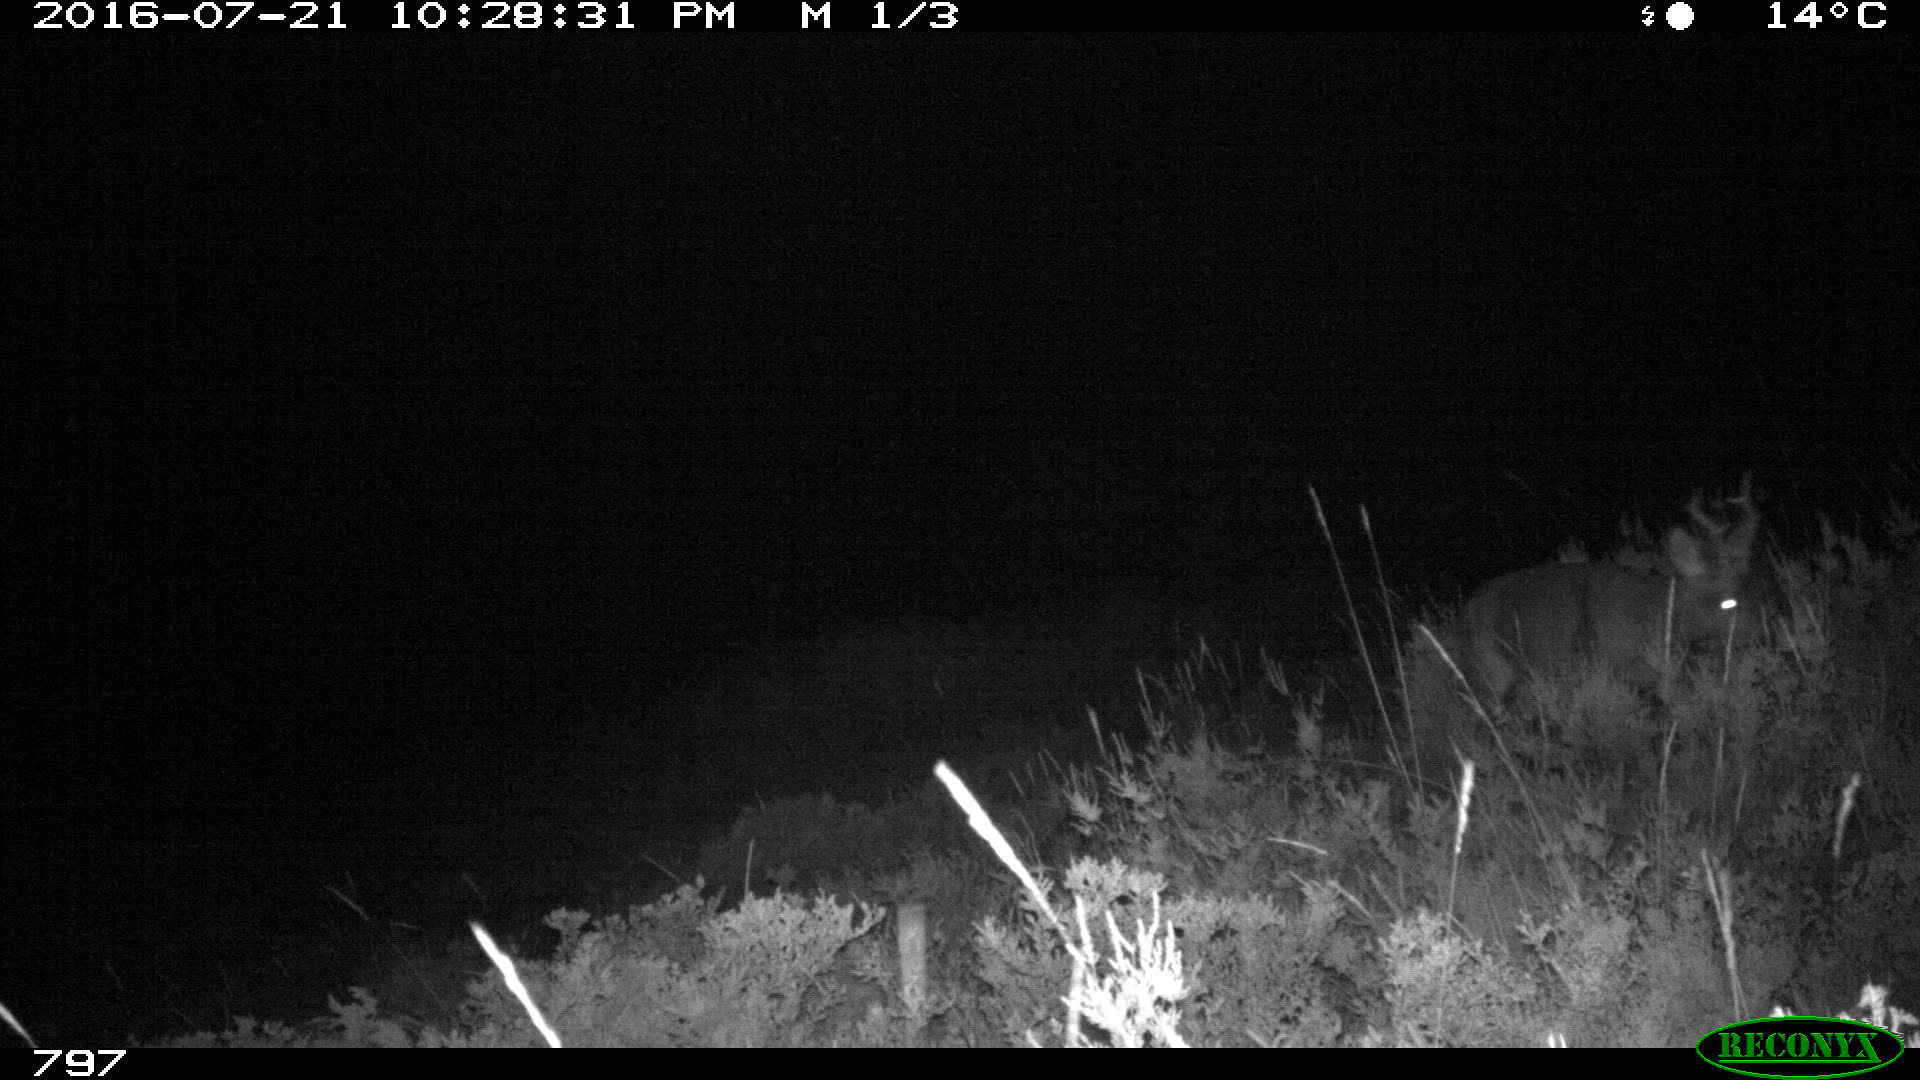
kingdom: Animalia
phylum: Chordata
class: Mammalia
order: Artiodactyla
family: Cervidae
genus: Capreolus
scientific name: Capreolus capreolus
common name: Western roe deer
